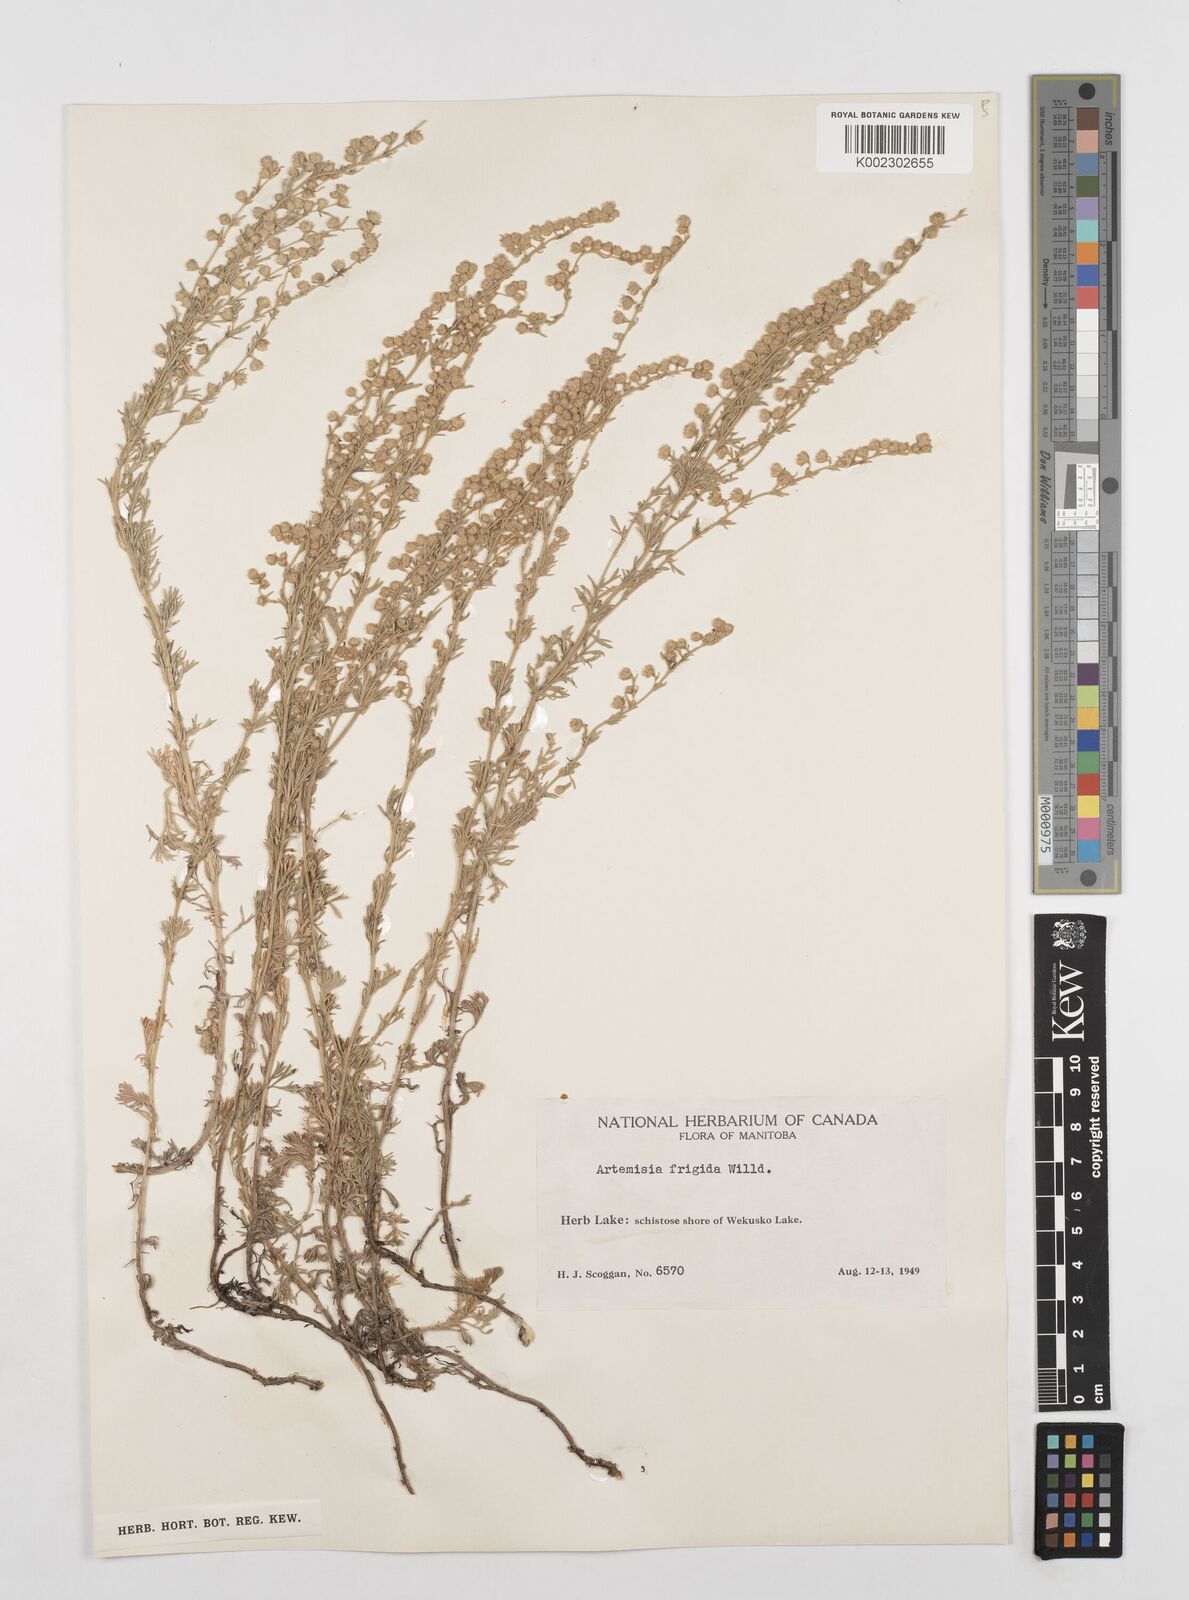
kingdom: Plantae
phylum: Tracheophyta
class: Magnoliopsida
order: Asterales
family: Asteraceae
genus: Artemisia
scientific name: Artemisia frigida
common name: Prairie sagewort
